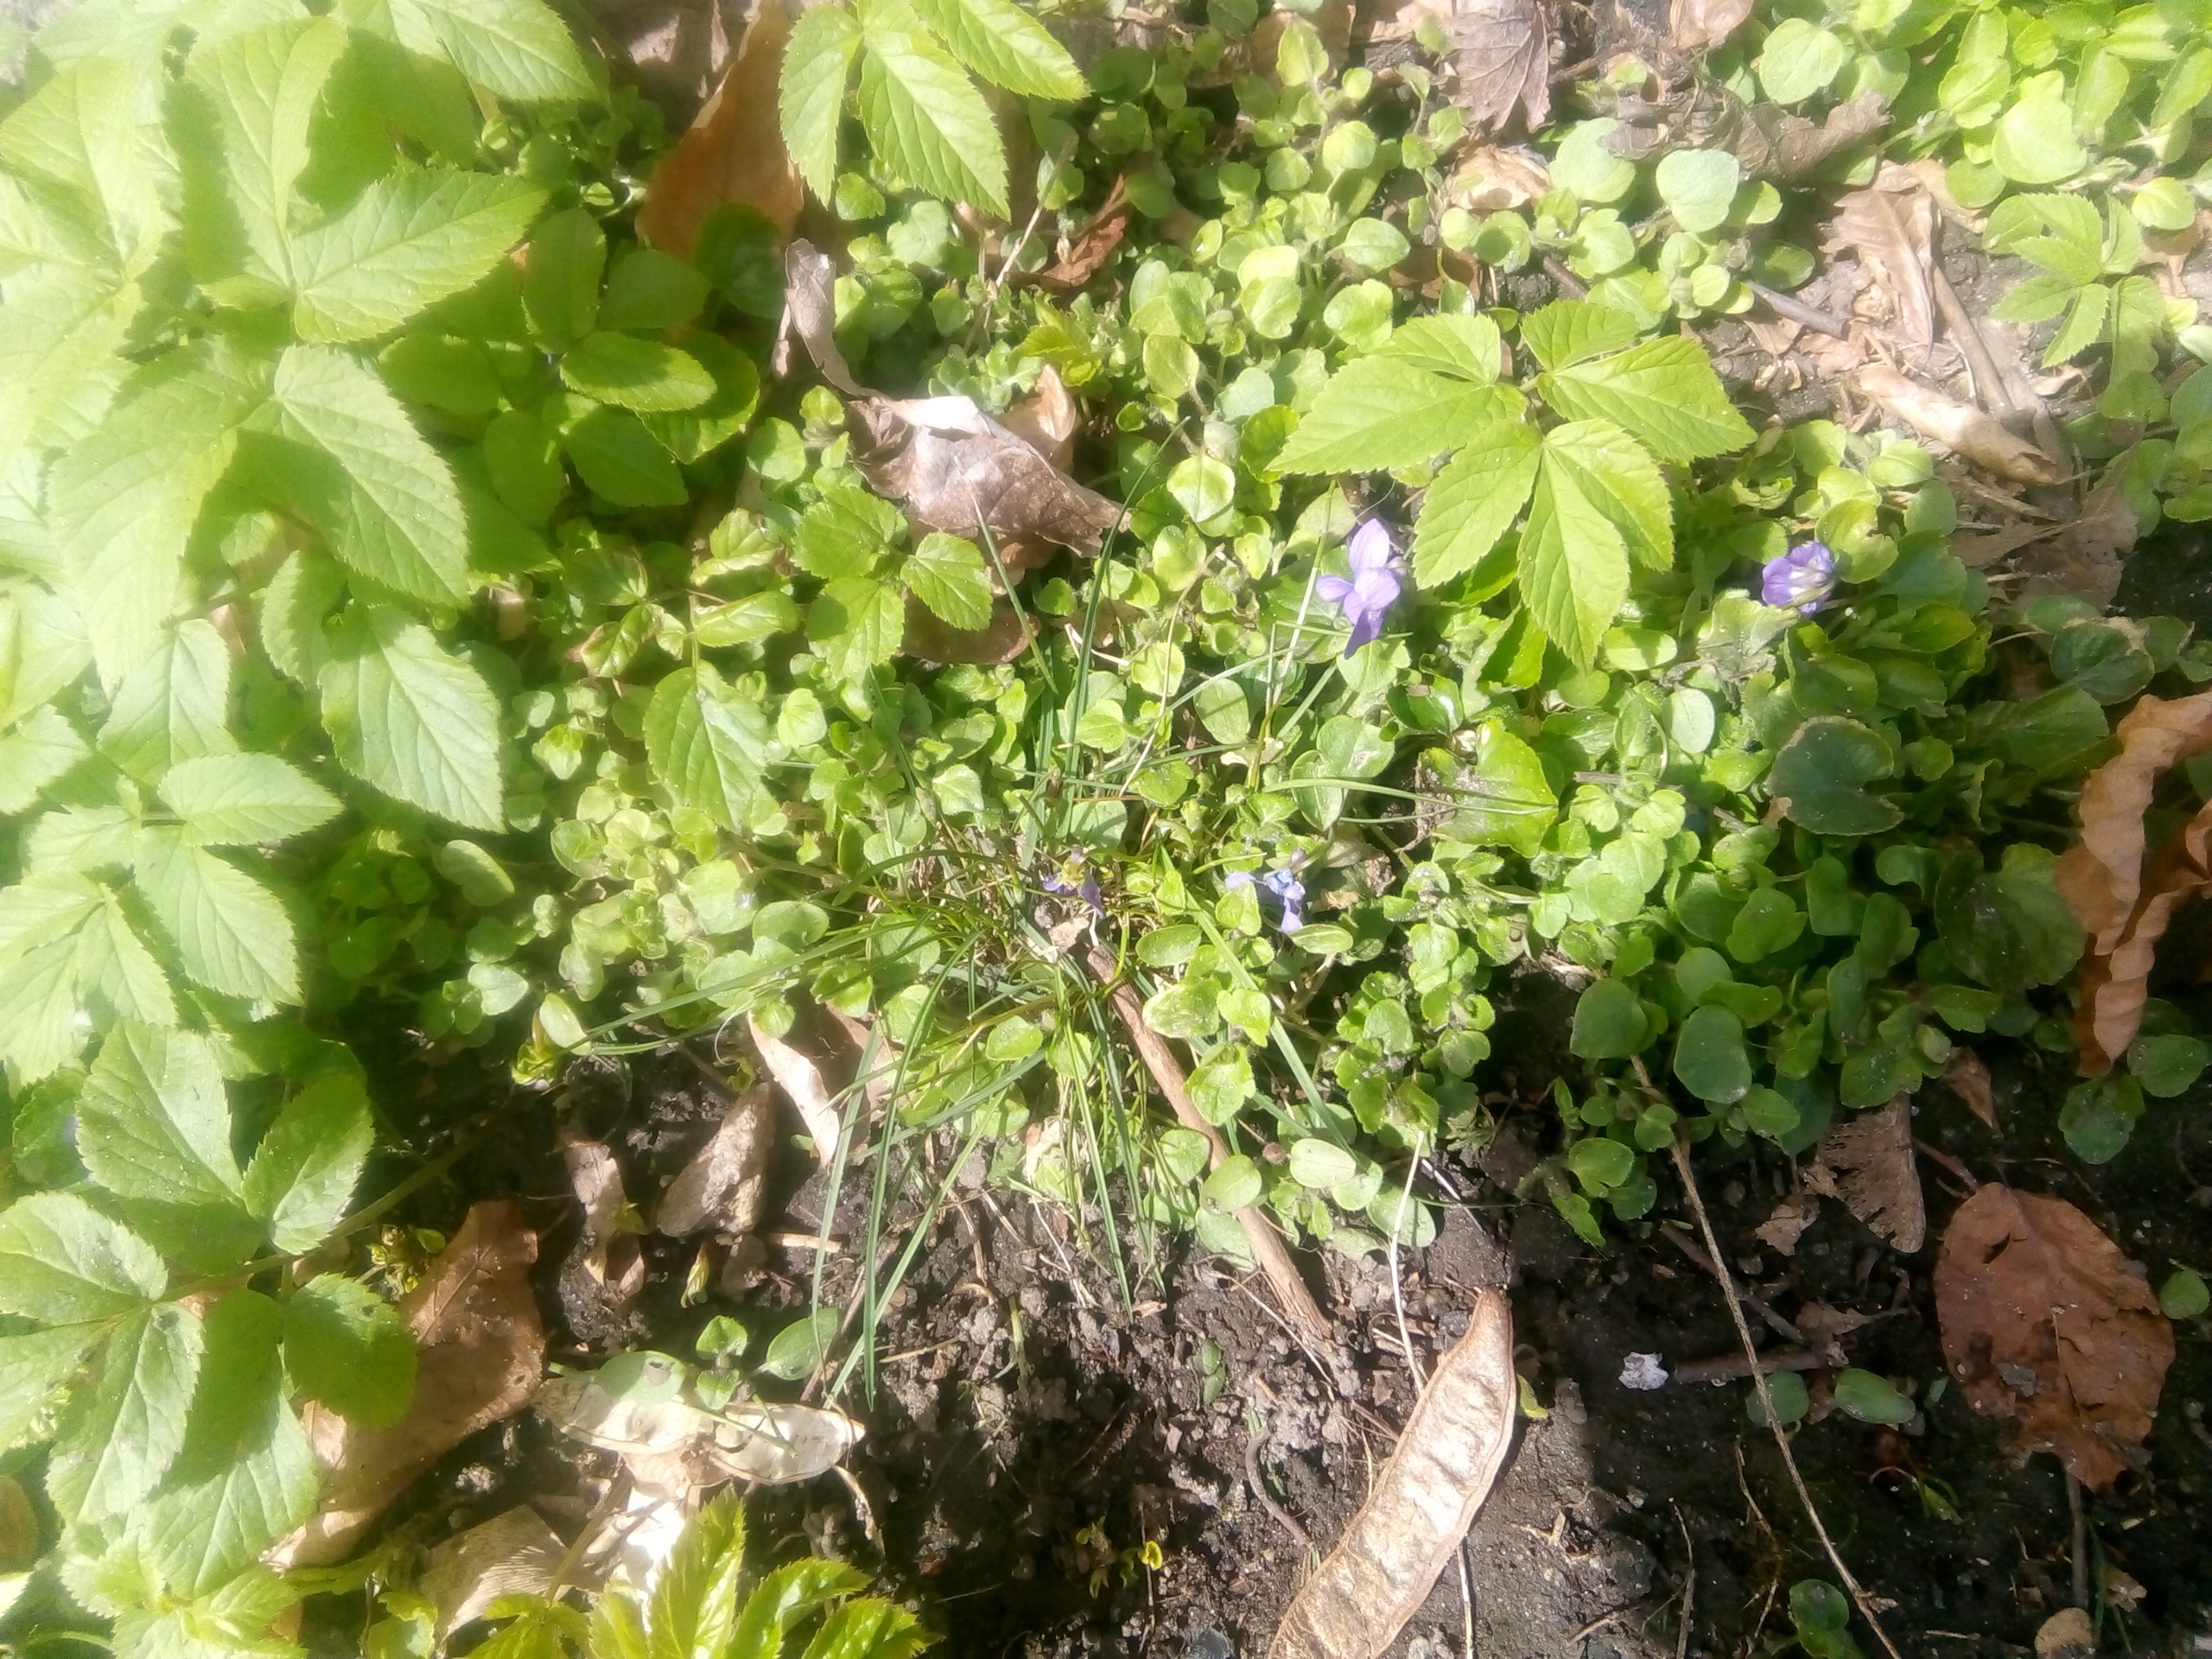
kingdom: Plantae
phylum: Tracheophyta
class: Magnoliopsida
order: Malpighiales
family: Violaceae
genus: Viola
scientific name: Viola odorata
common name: Marts-viol
